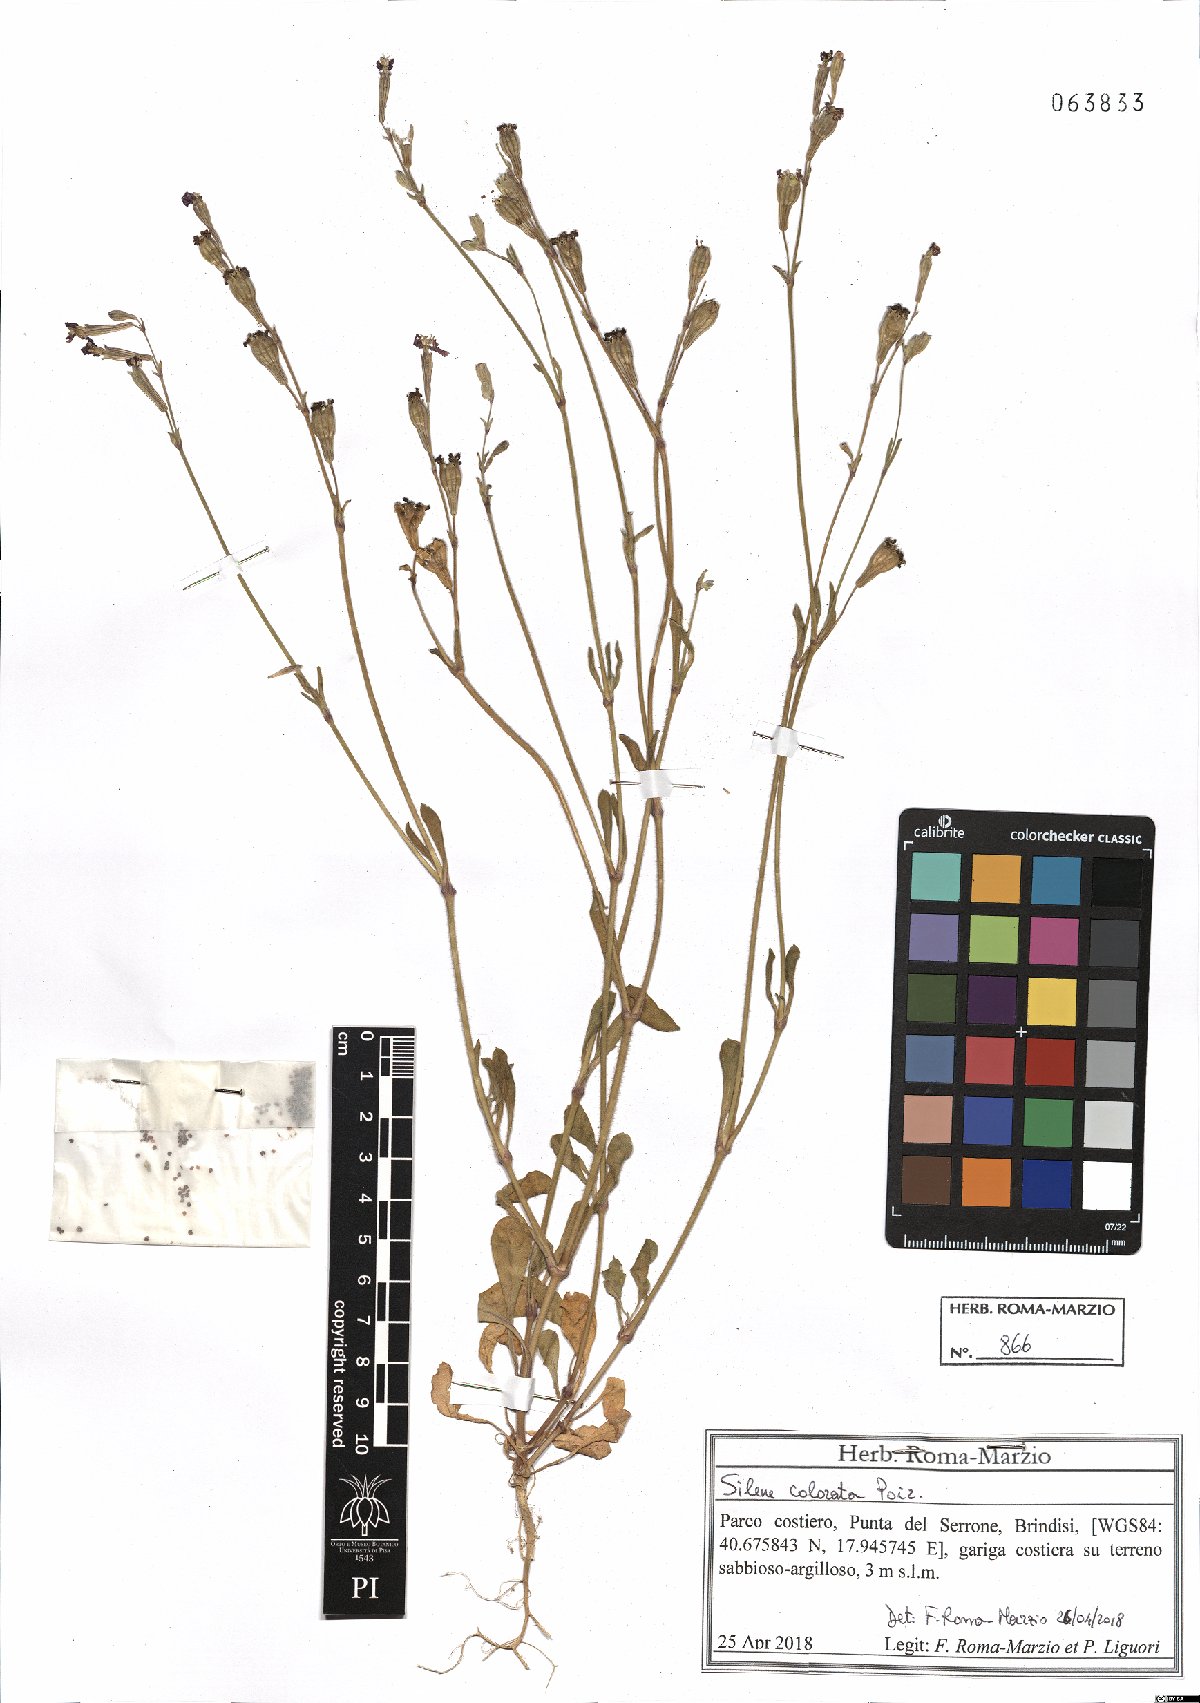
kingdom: Plantae
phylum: Tracheophyta
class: Magnoliopsida
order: Caryophyllales
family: Caryophyllaceae
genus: Silene
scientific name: Silene colorata
